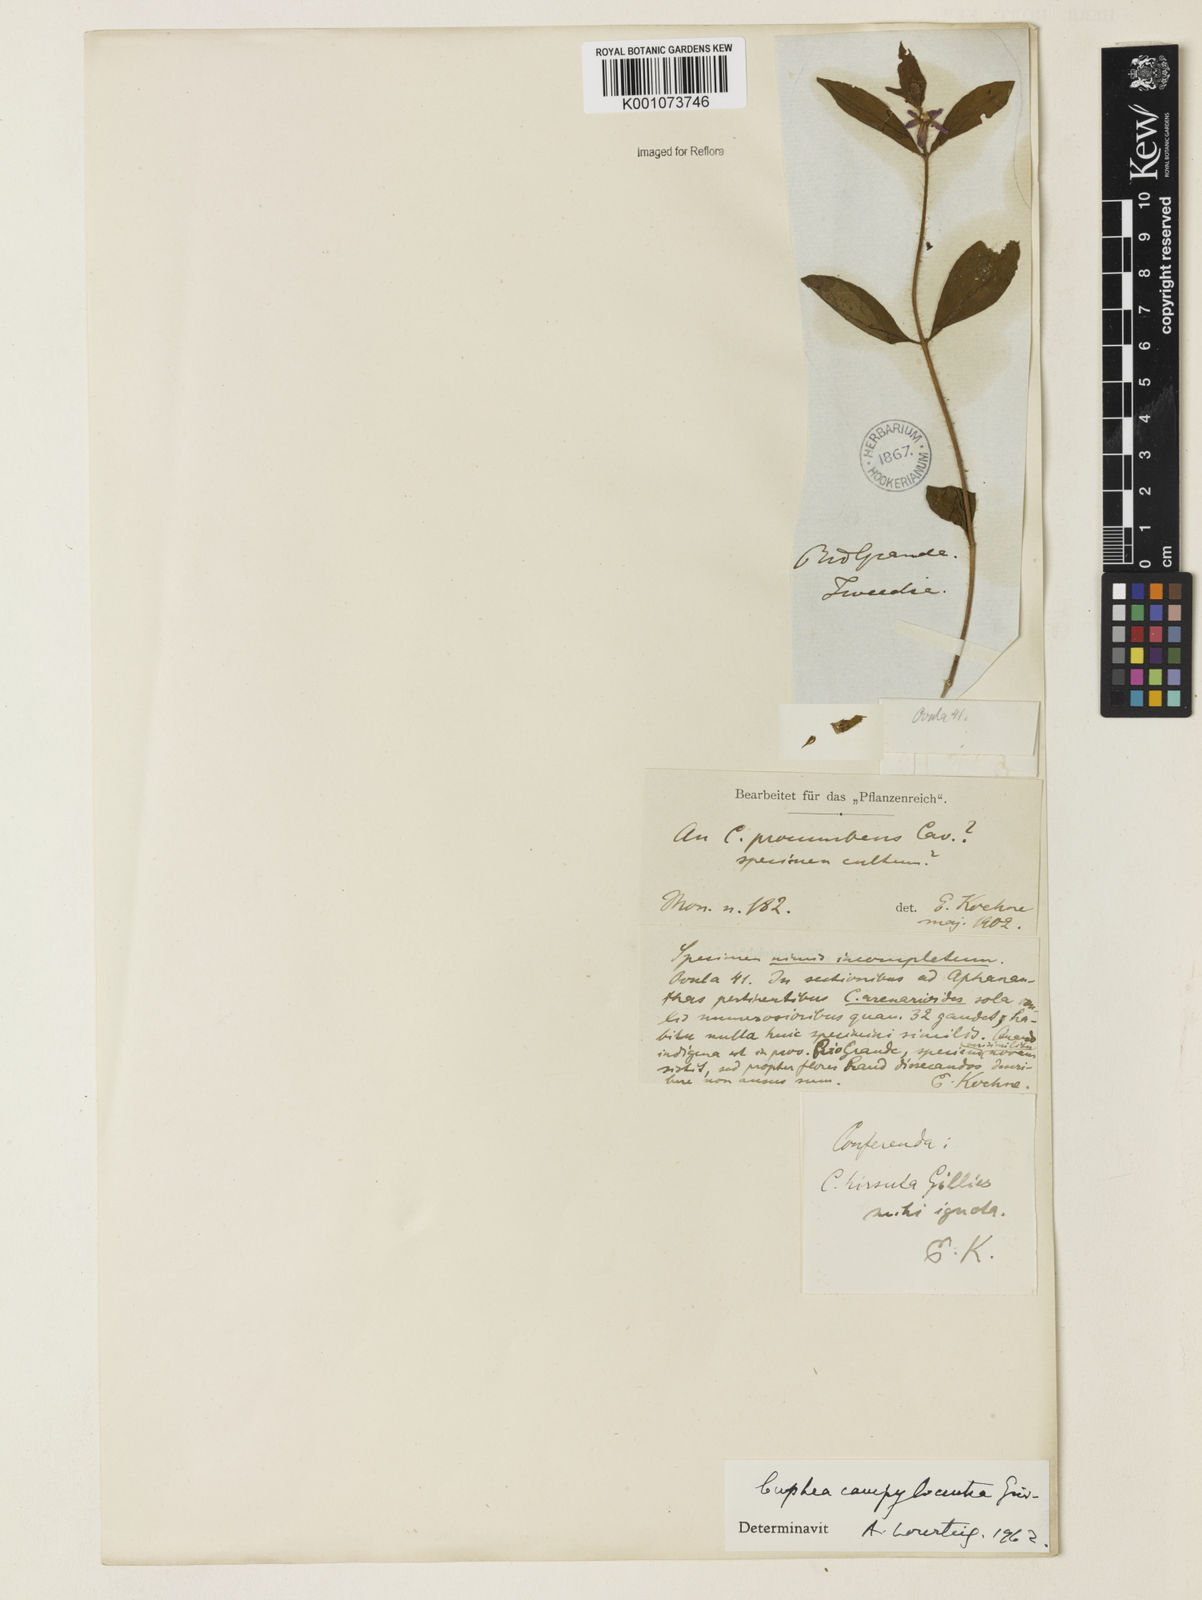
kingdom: Plantae
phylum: Tracheophyta
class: Magnoliopsida
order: Myrtales
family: Lythraceae
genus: Cuphea
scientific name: Cuphea campylocentra
